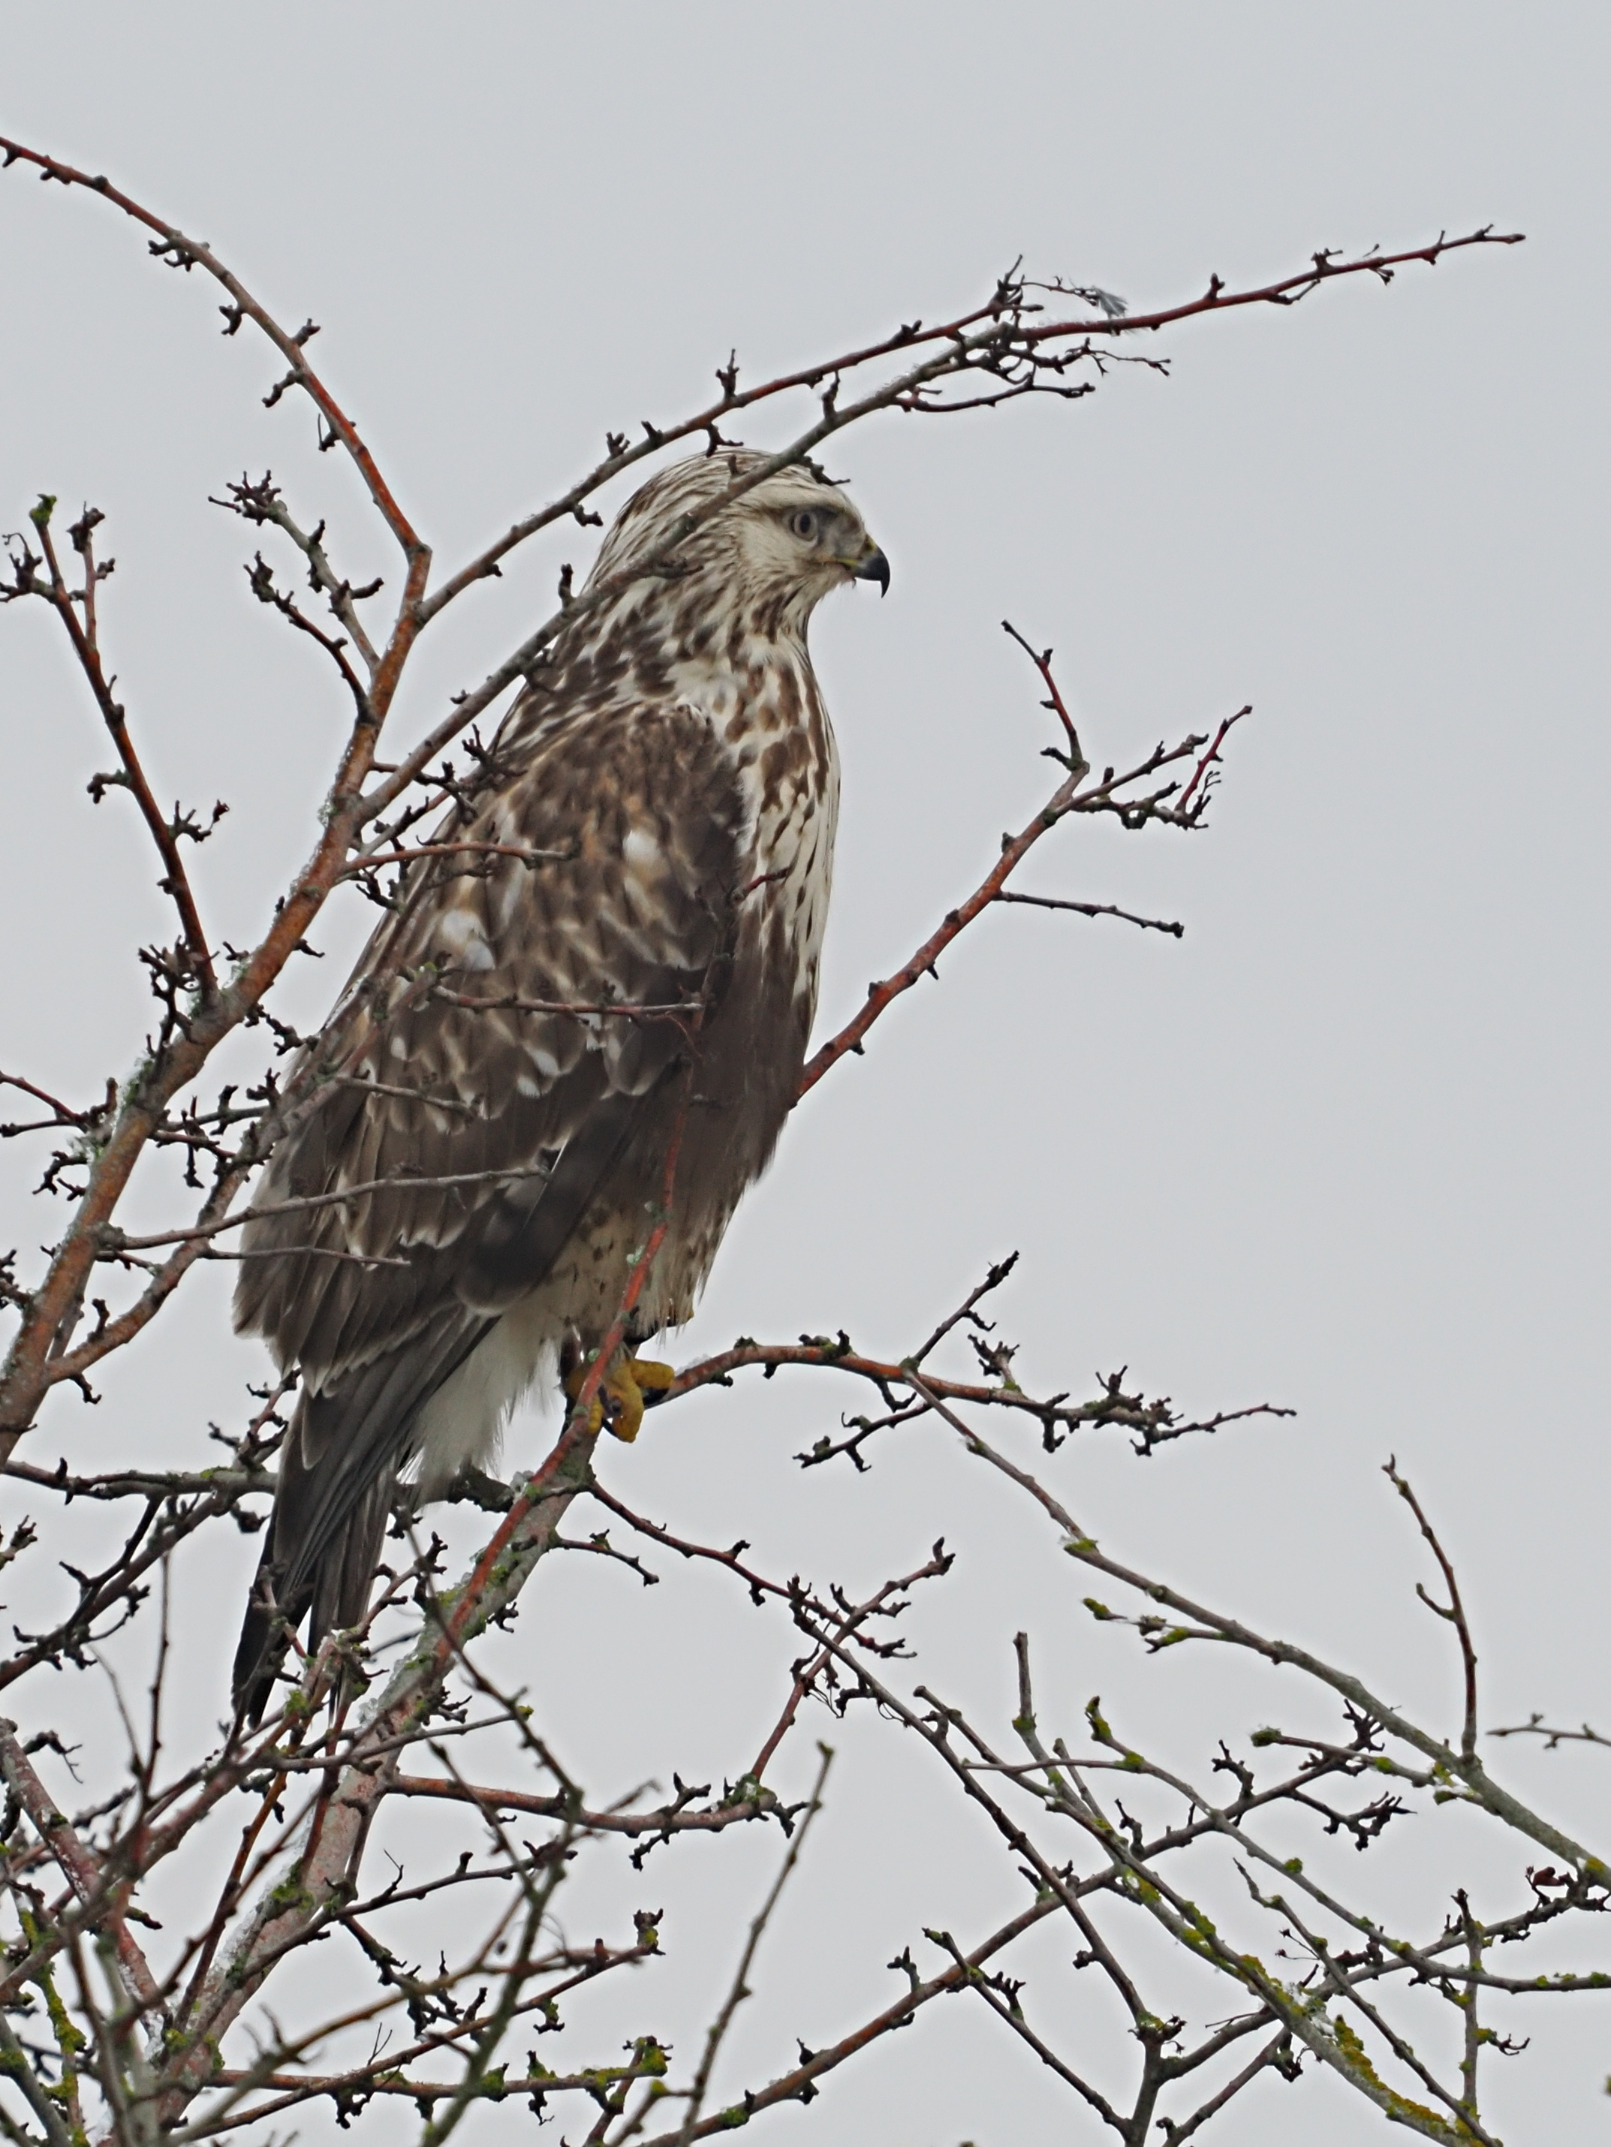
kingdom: Animalia
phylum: Chordata
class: Aves
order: Accipitriformes
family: Accipitridae
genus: Buteo
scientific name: Buteo lagopus
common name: Fjeldvåge
